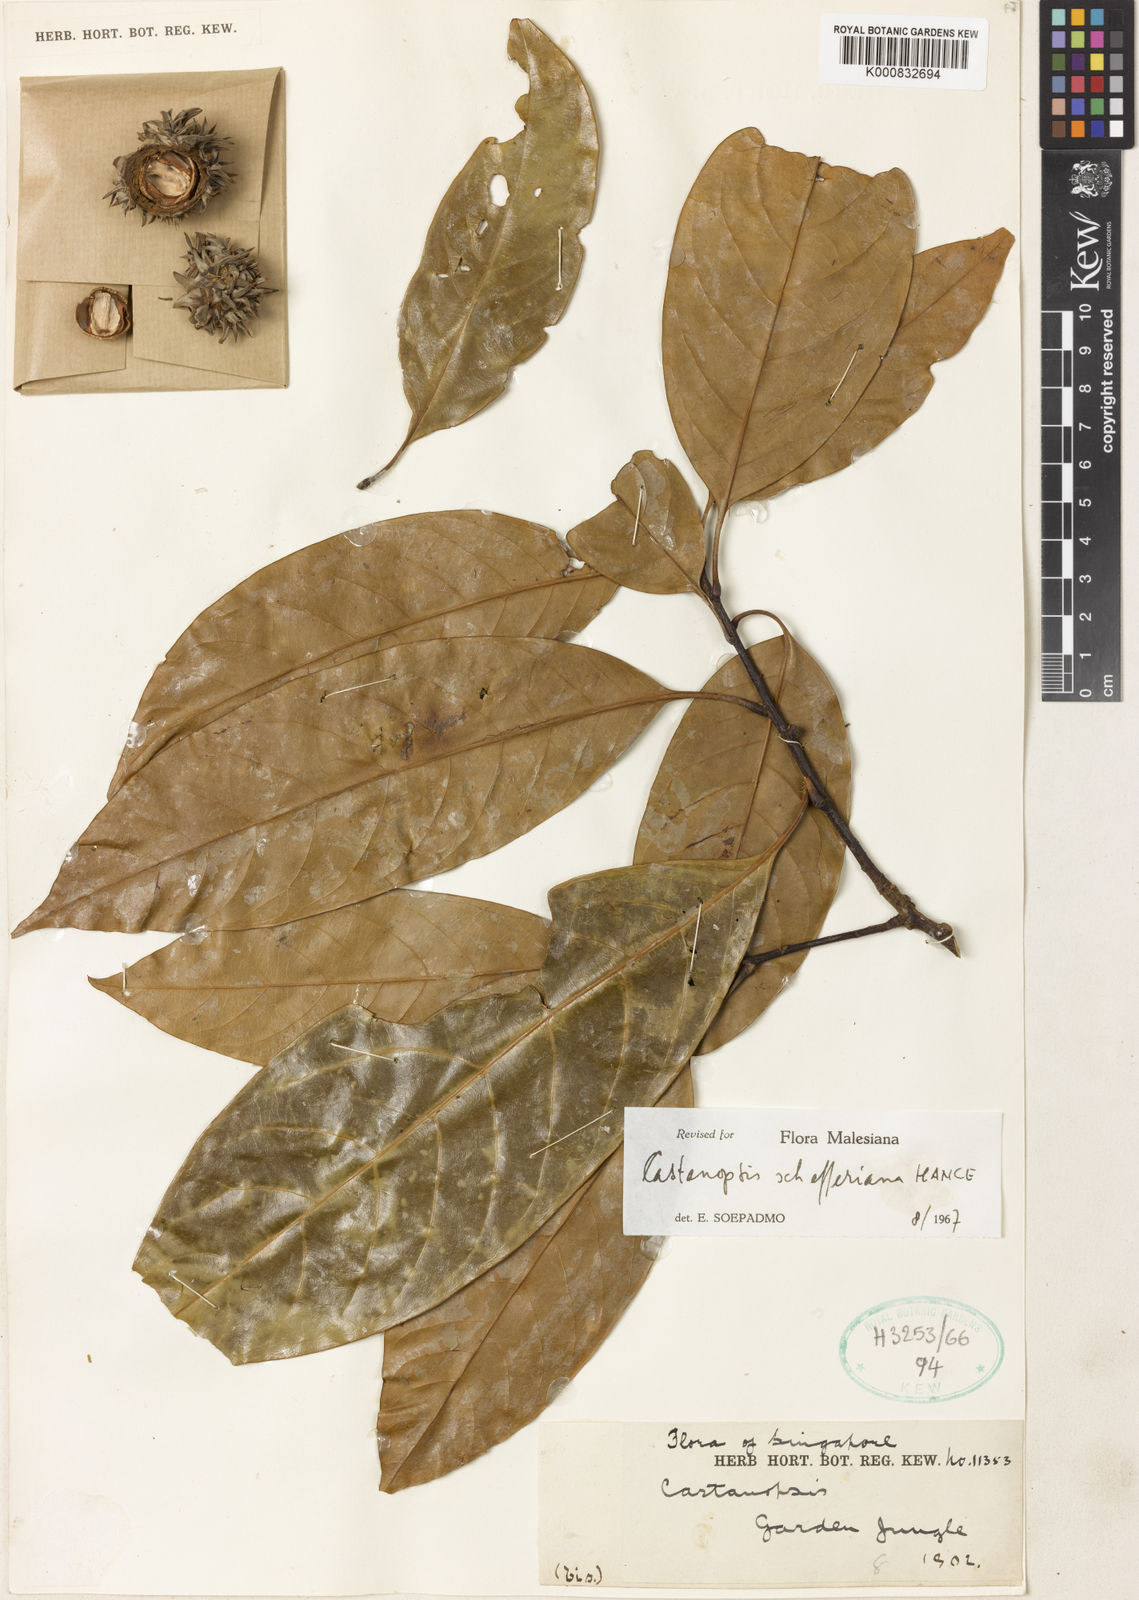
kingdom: Plantae
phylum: Tracheophyta
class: Magnoliopsida
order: Fagales
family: Fagaceae
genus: Castanopsis
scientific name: Castanopsis schefferiana
